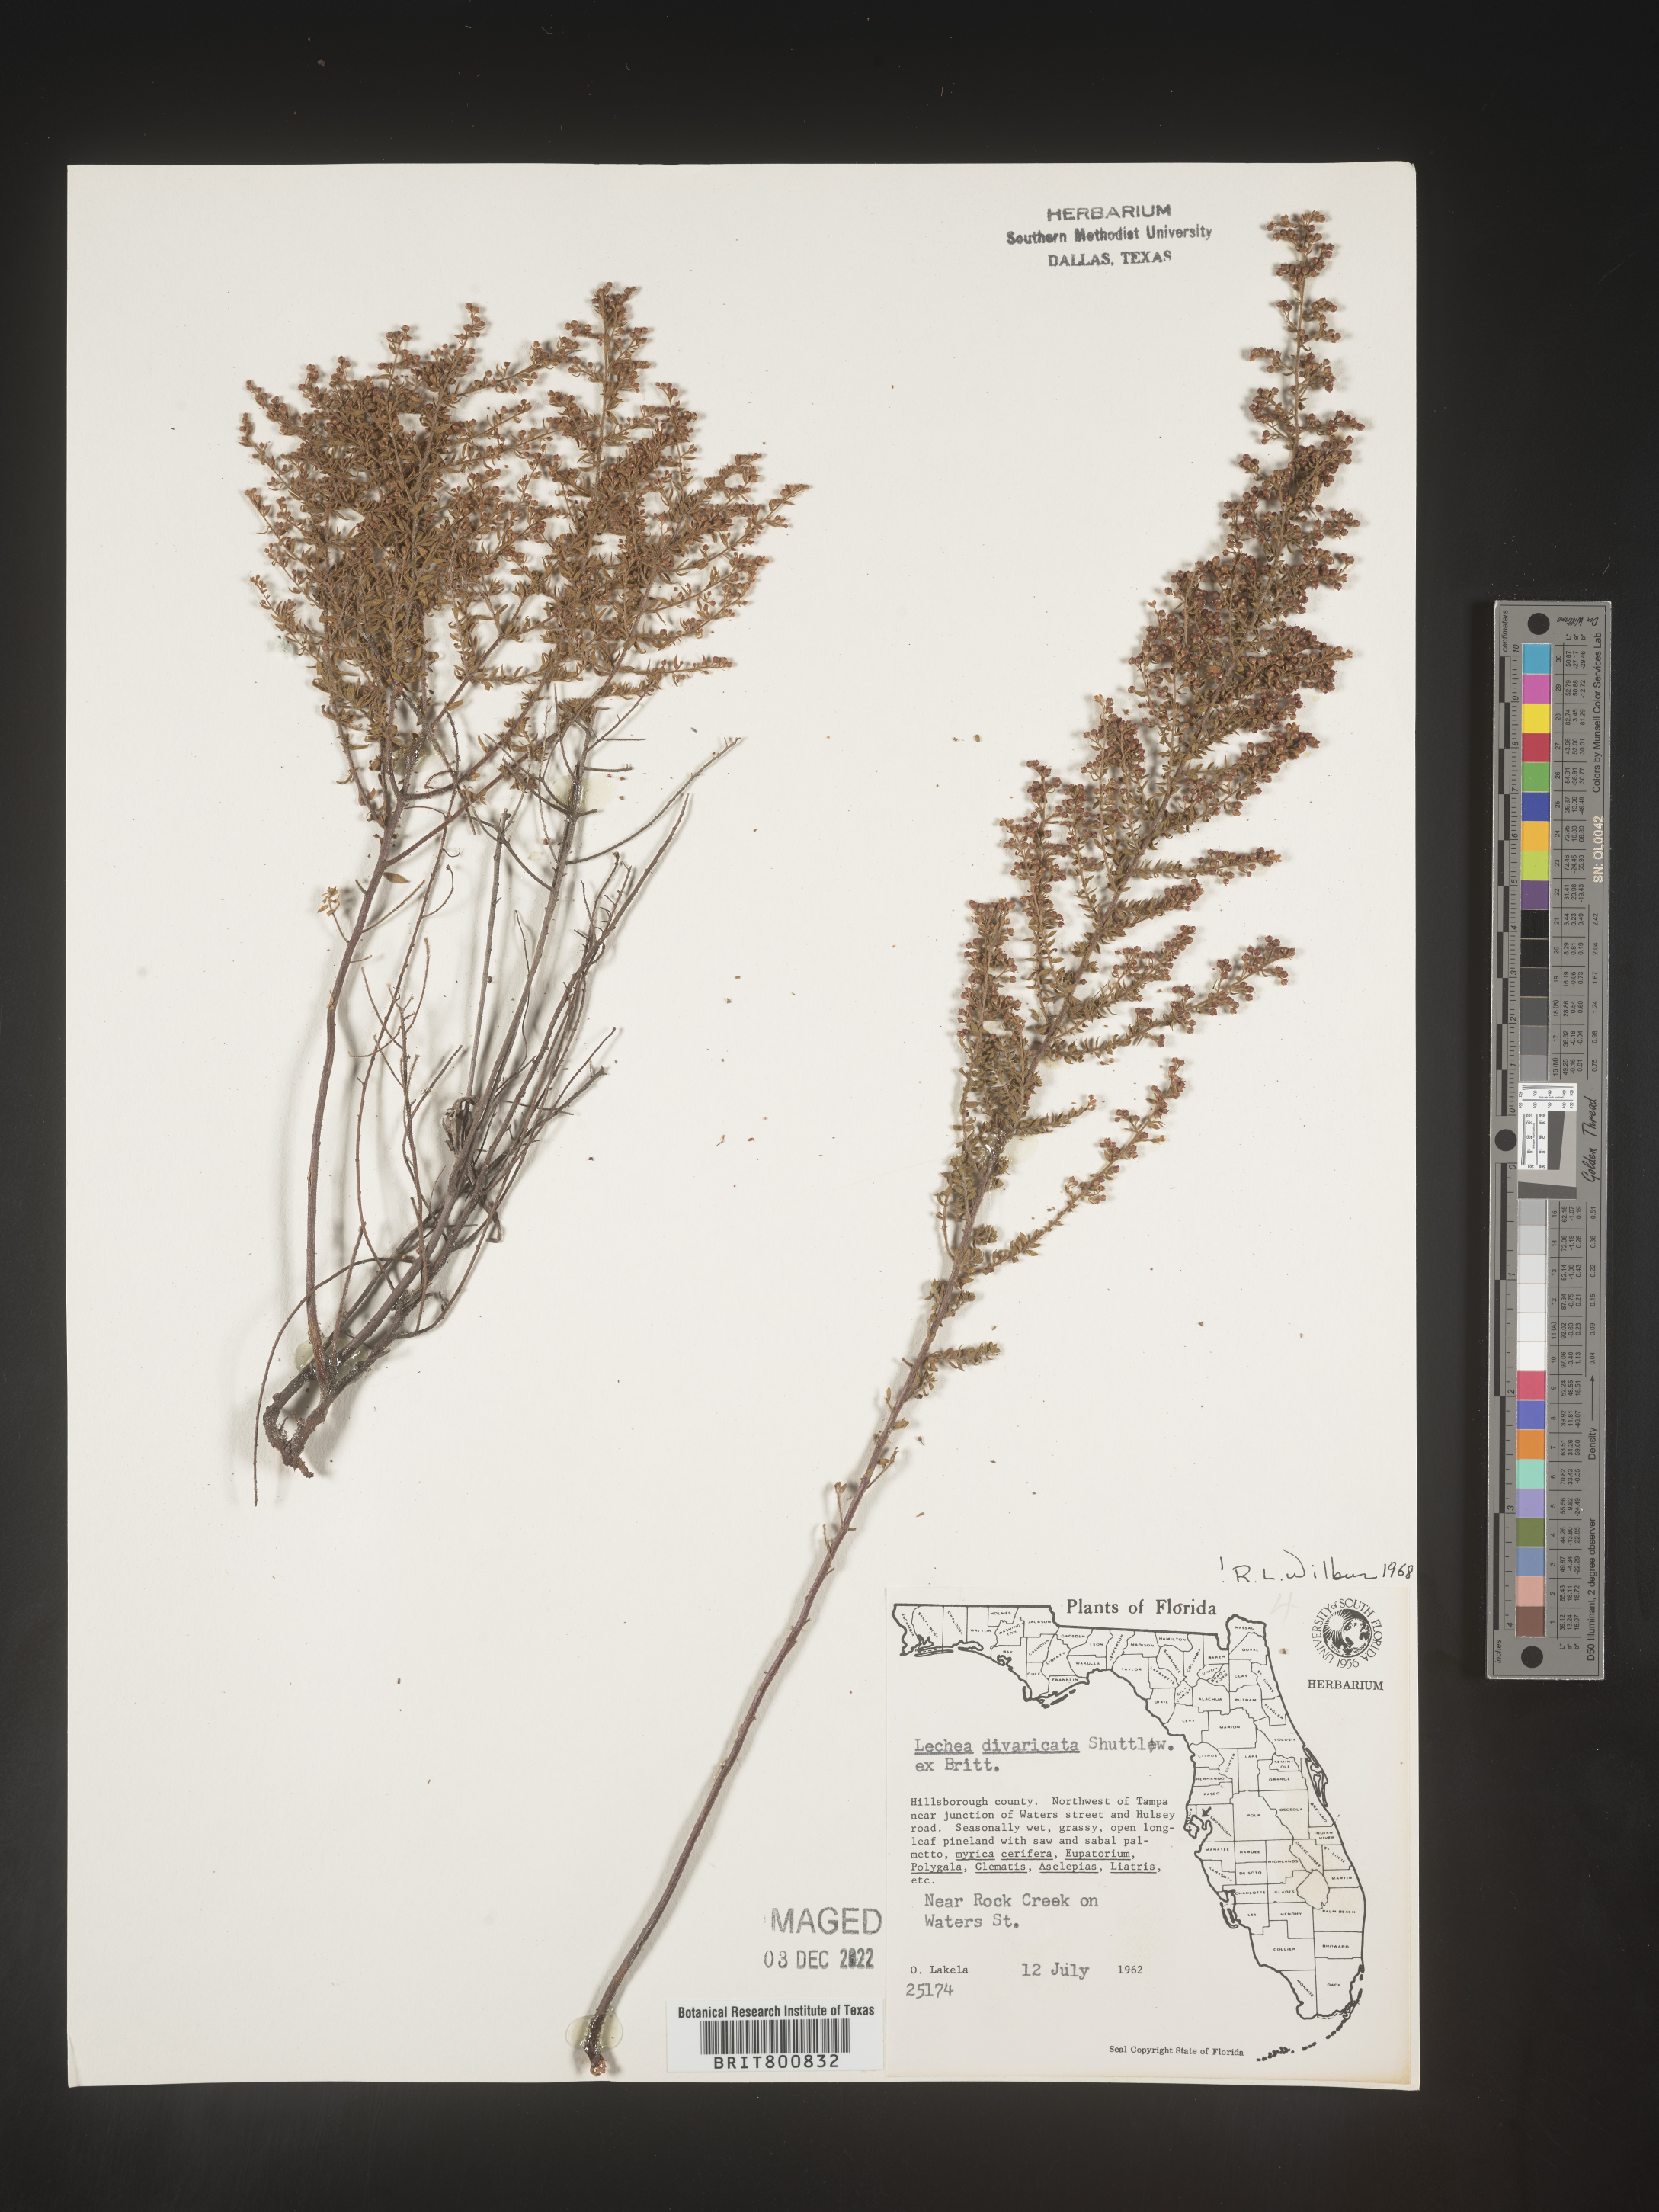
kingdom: Plantae
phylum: Tracheophyta
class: Magnoliopsida
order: Malvales
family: Cistaceae
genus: Lechea
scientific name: Lechea
